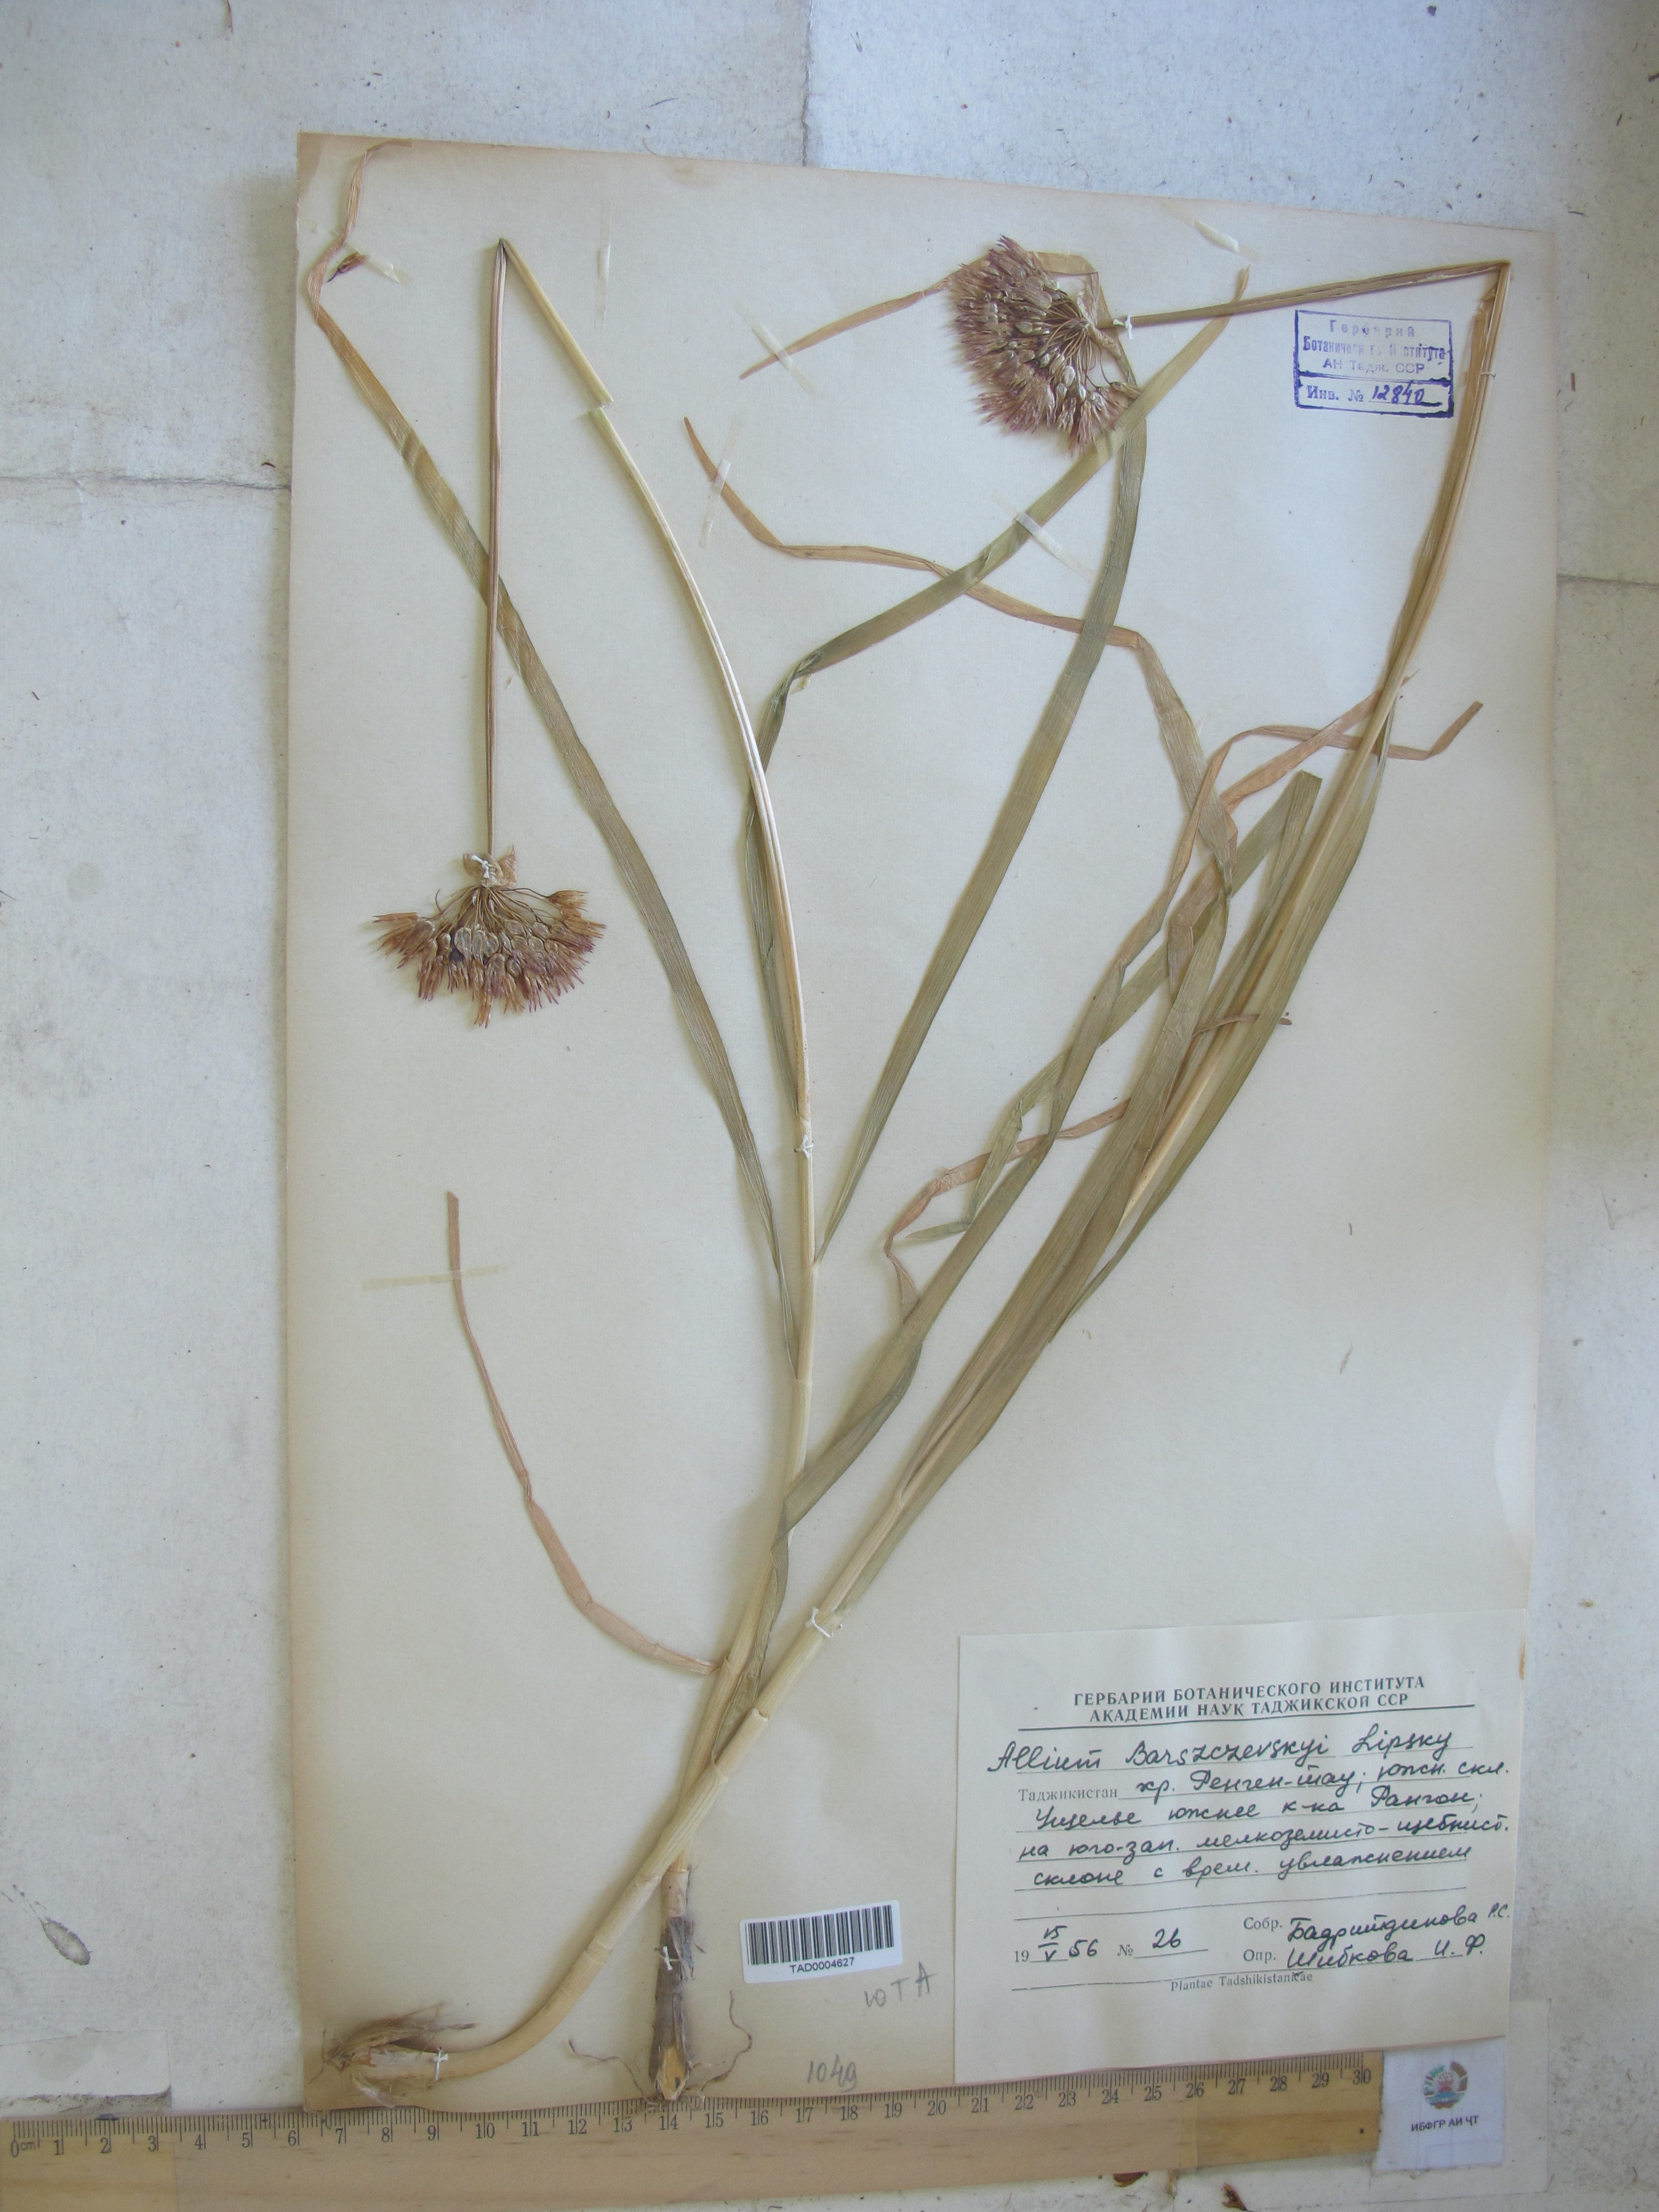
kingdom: Plantae
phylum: Tracheophyta
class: Liliopsida
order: Asparagales
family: Amaryllidaceae
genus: Allium
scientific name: Allium barsczewskii
